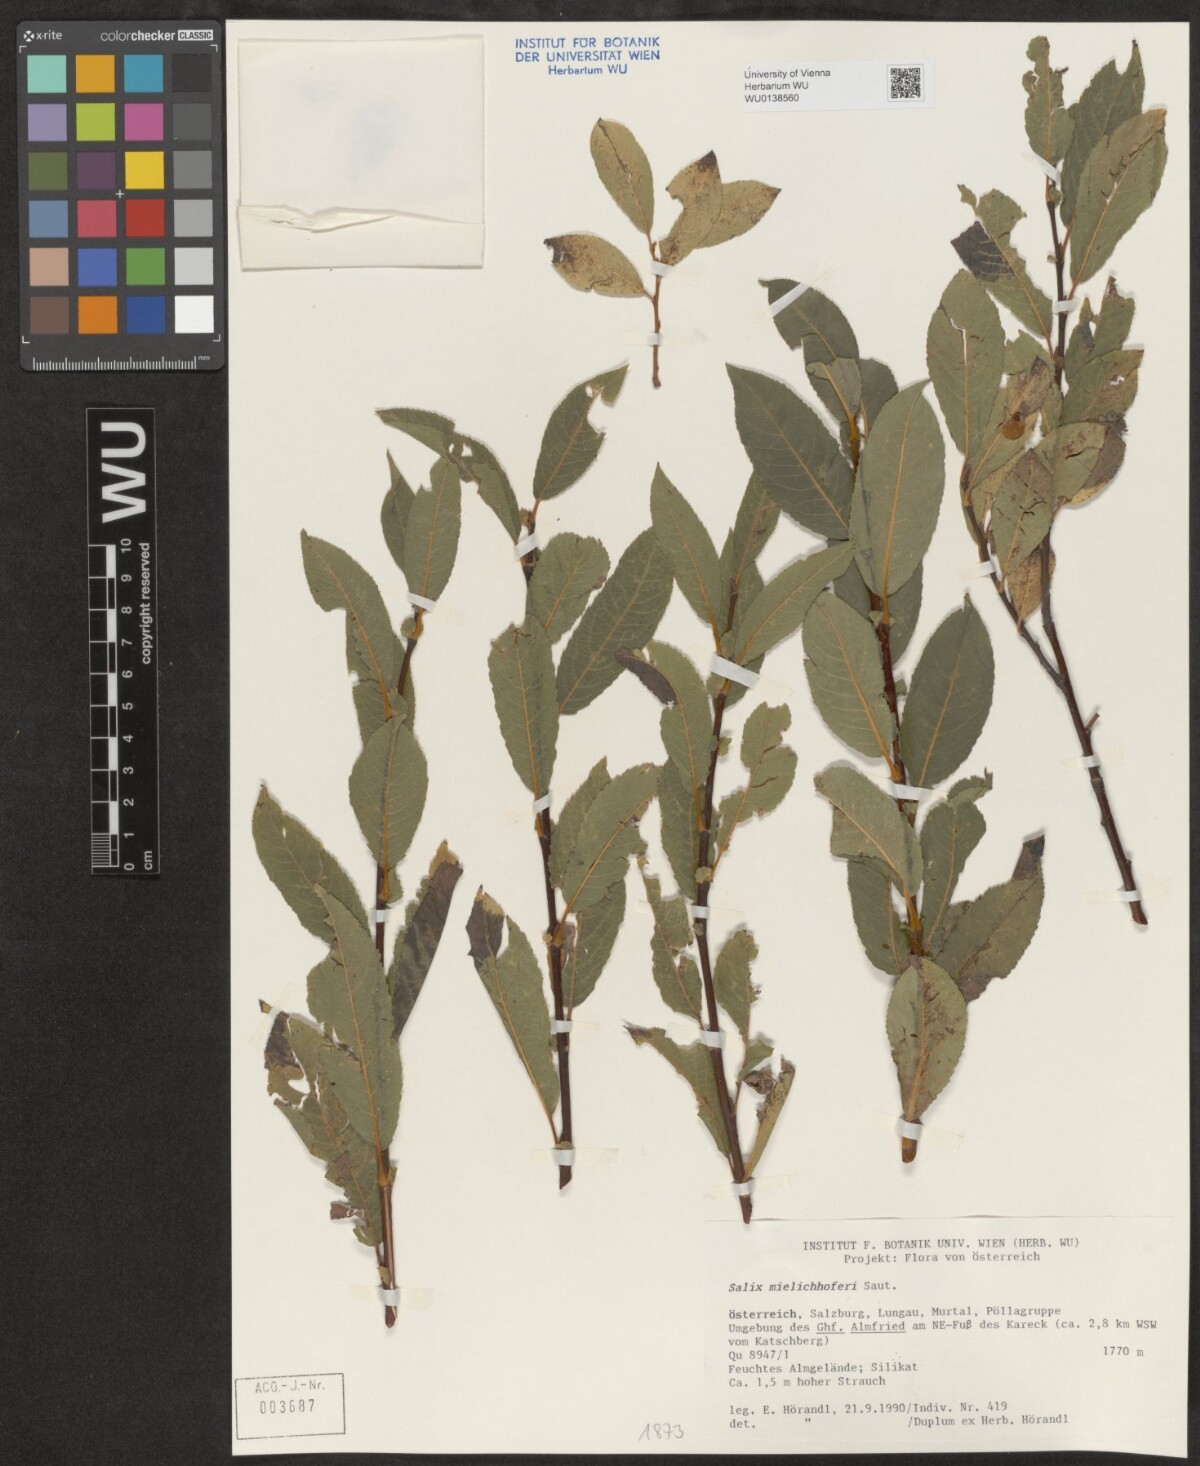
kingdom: Plantae
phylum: Tracheophyta
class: Magnoliopsida
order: Malpighiales
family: Salicaceae
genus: Salix
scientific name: Salix mielichhoferi
